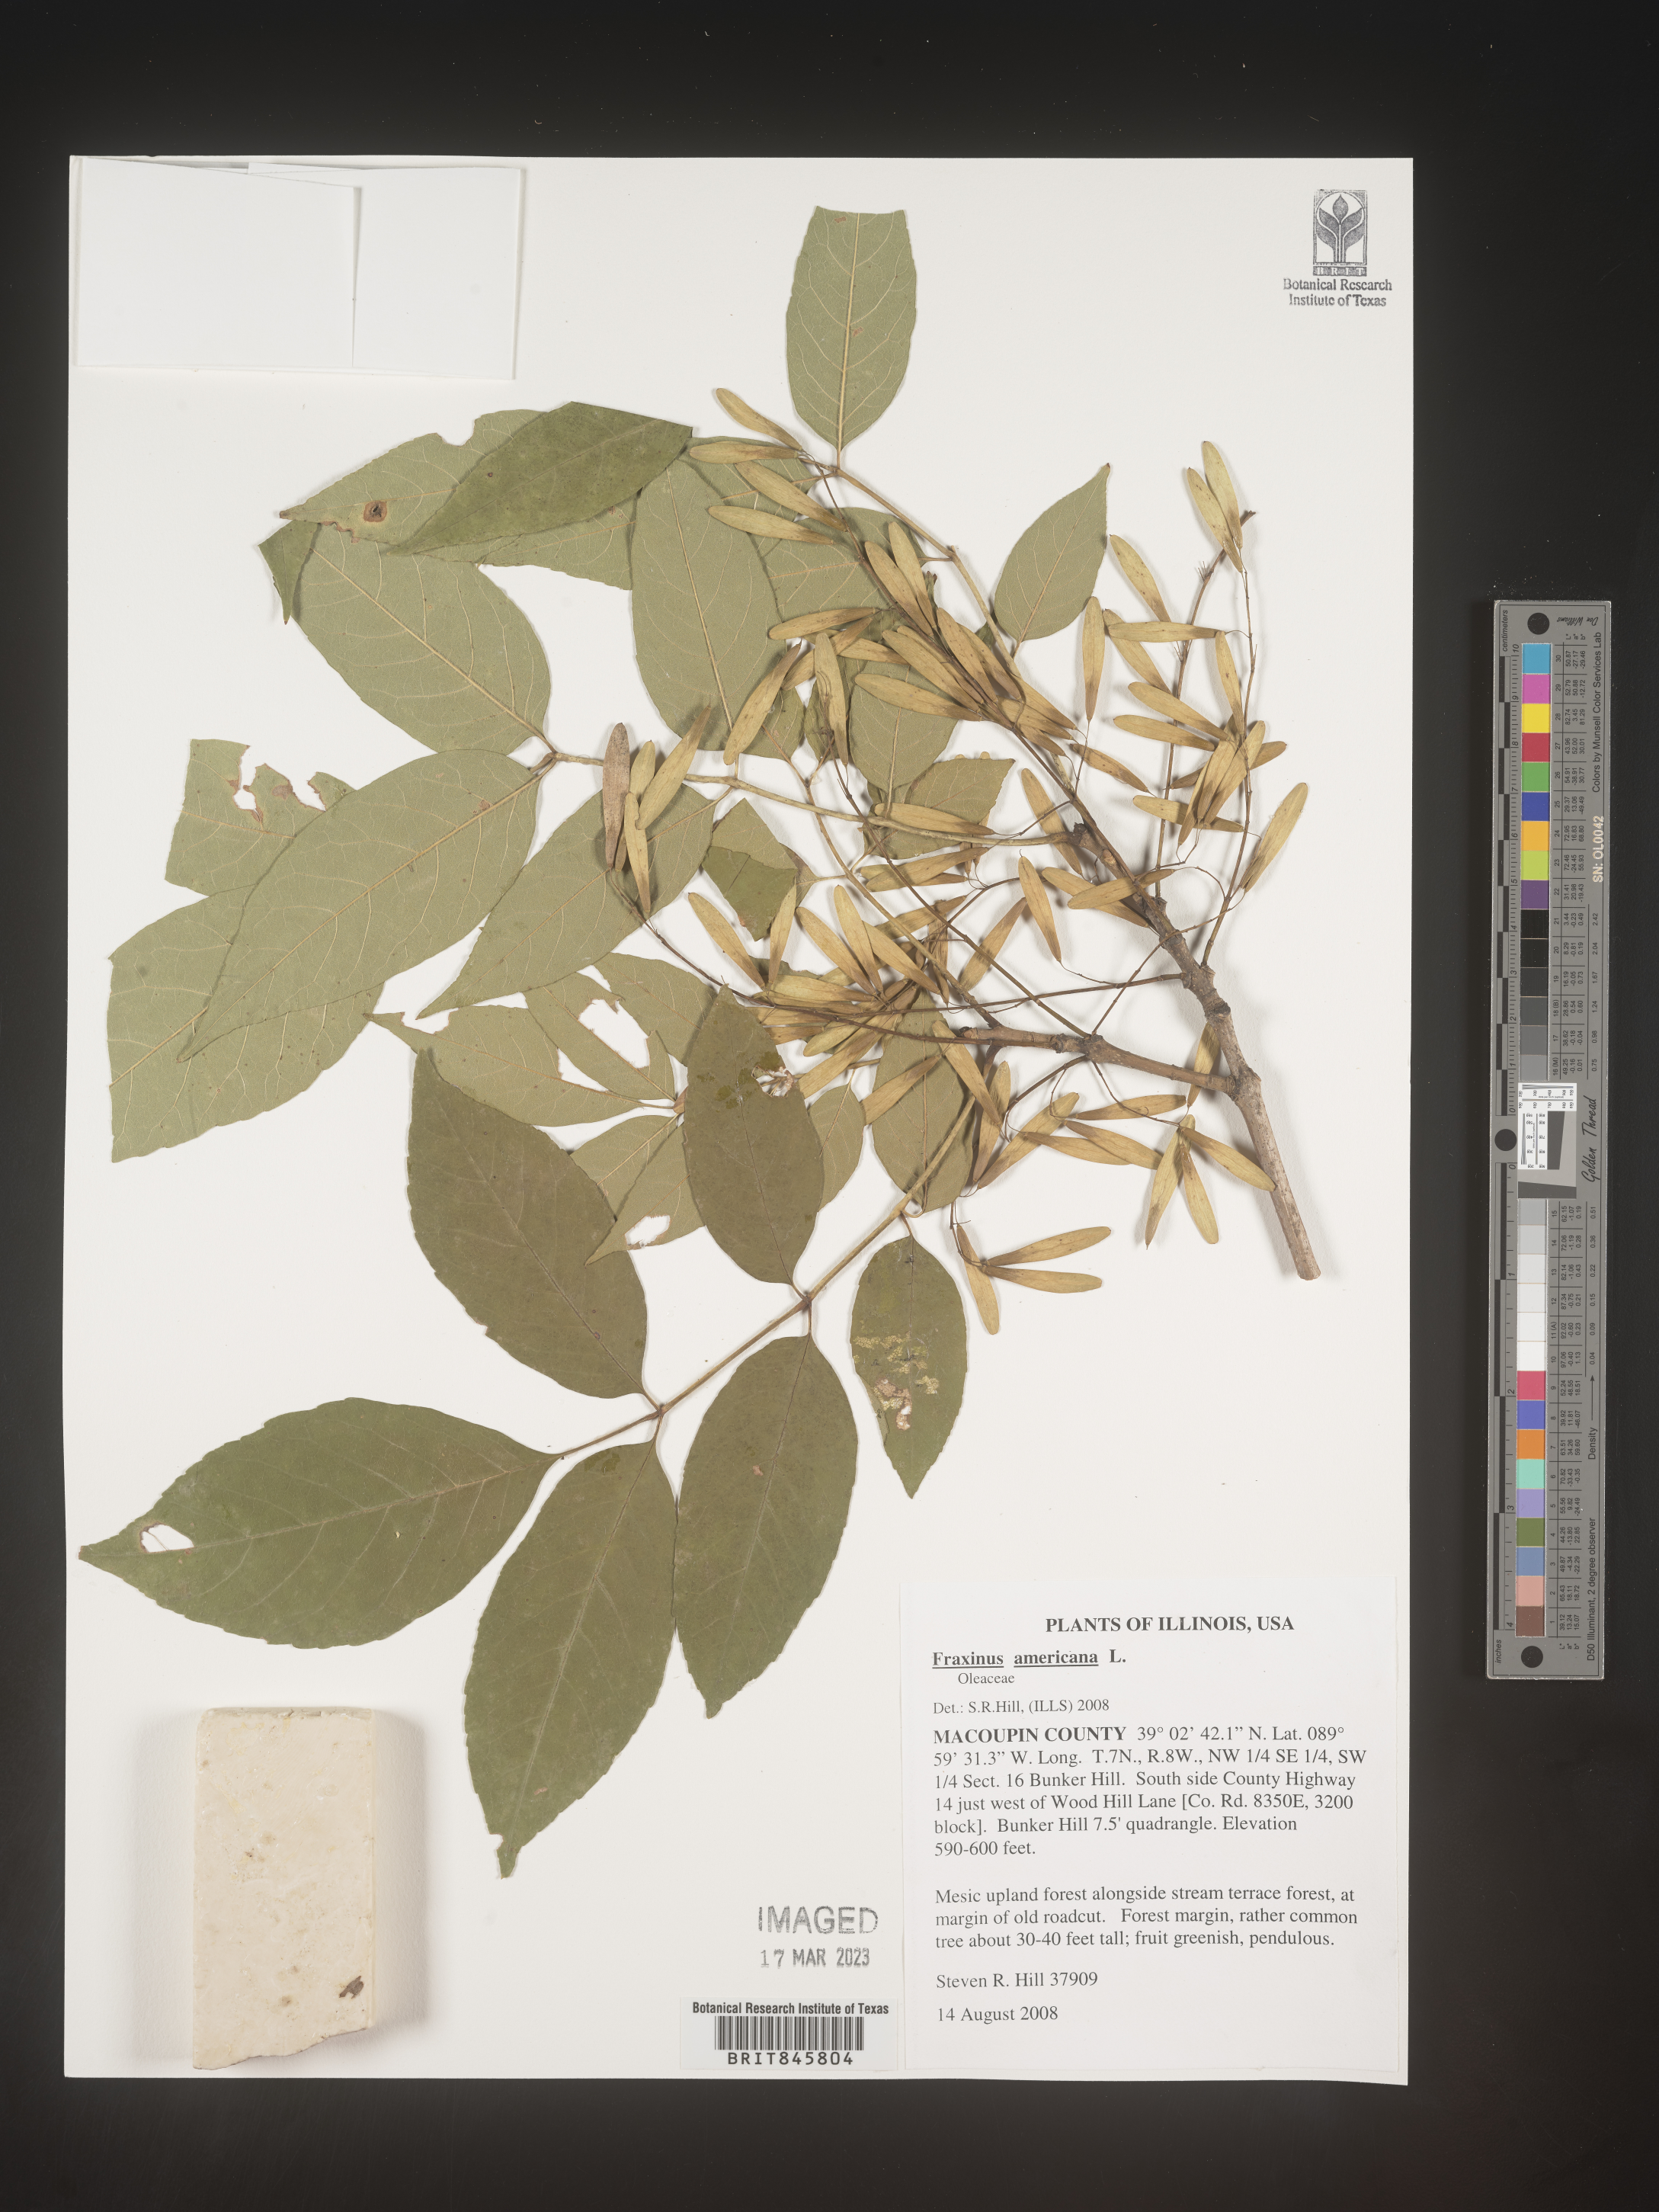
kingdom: Plantae
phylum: Tracheophyta
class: Magnoliopsida
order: Lamiales
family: Oleaceae
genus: Fraxinus
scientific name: Fraxinus americana
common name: White ash
